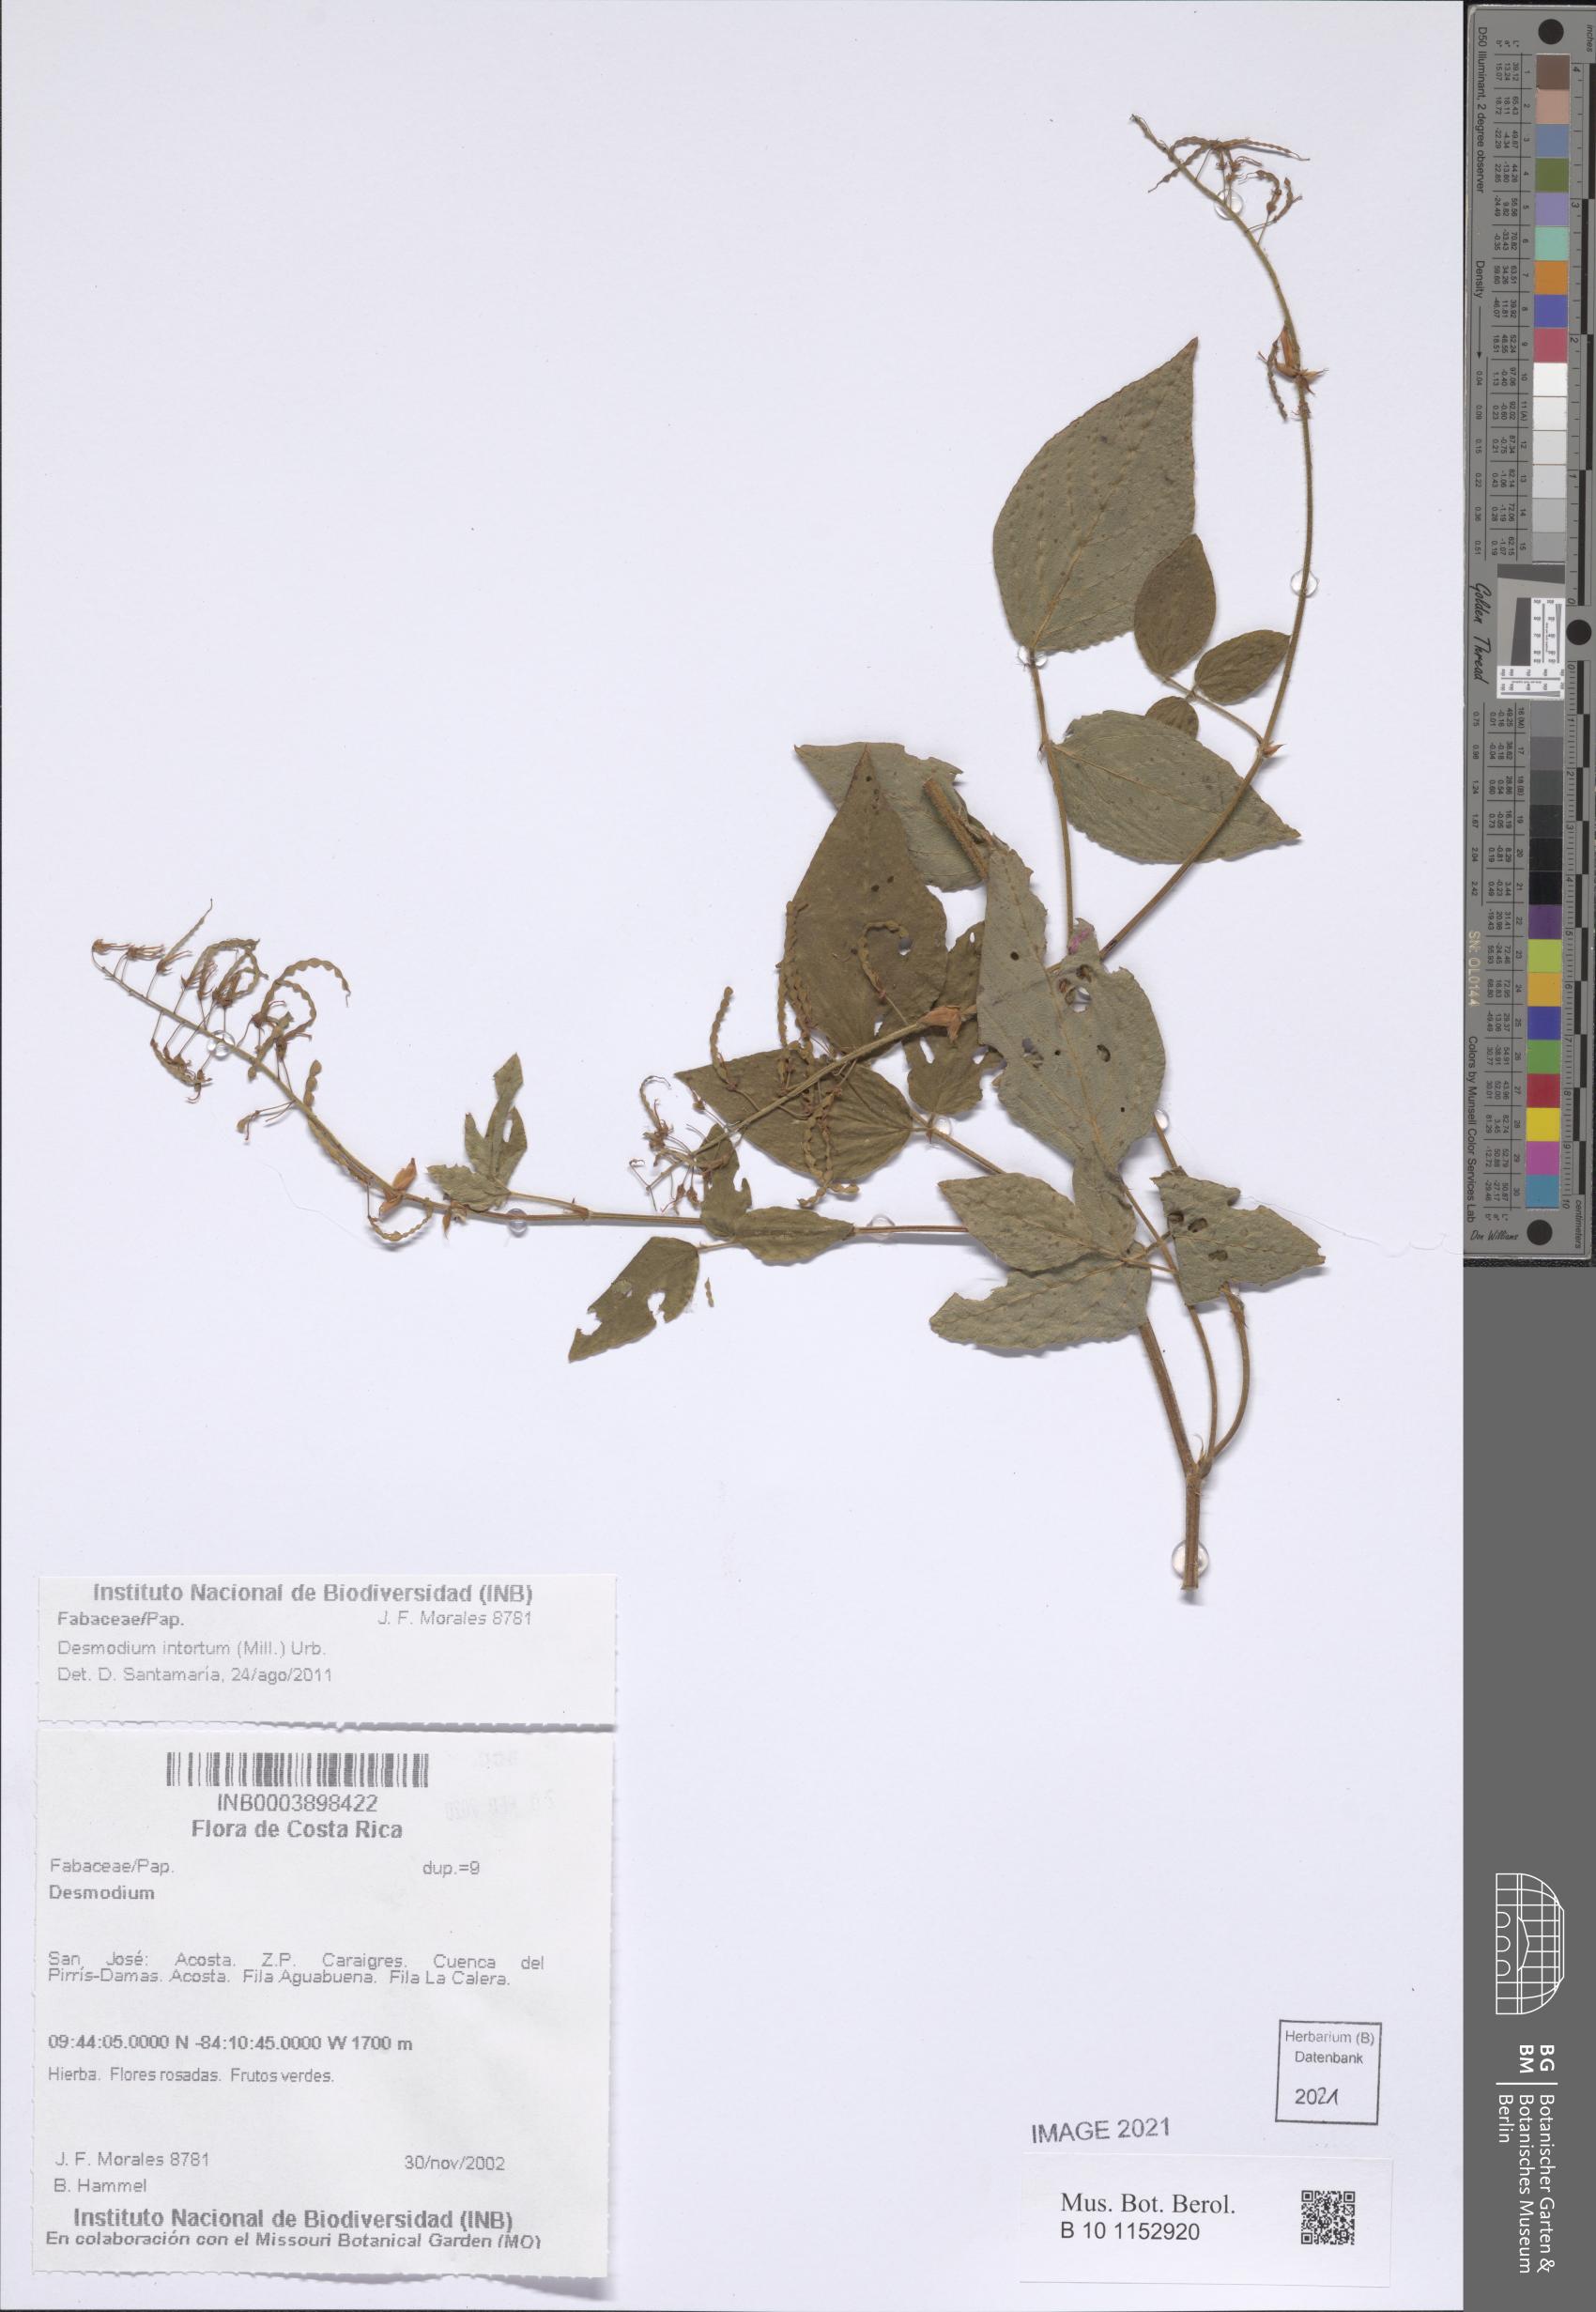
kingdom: Plantae
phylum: Tracheophyta
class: Magnoliopsida
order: Fabales
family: Fabaceae
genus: Desmodium
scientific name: Desmodium intortum
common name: Greenleaf ticktrefoil
